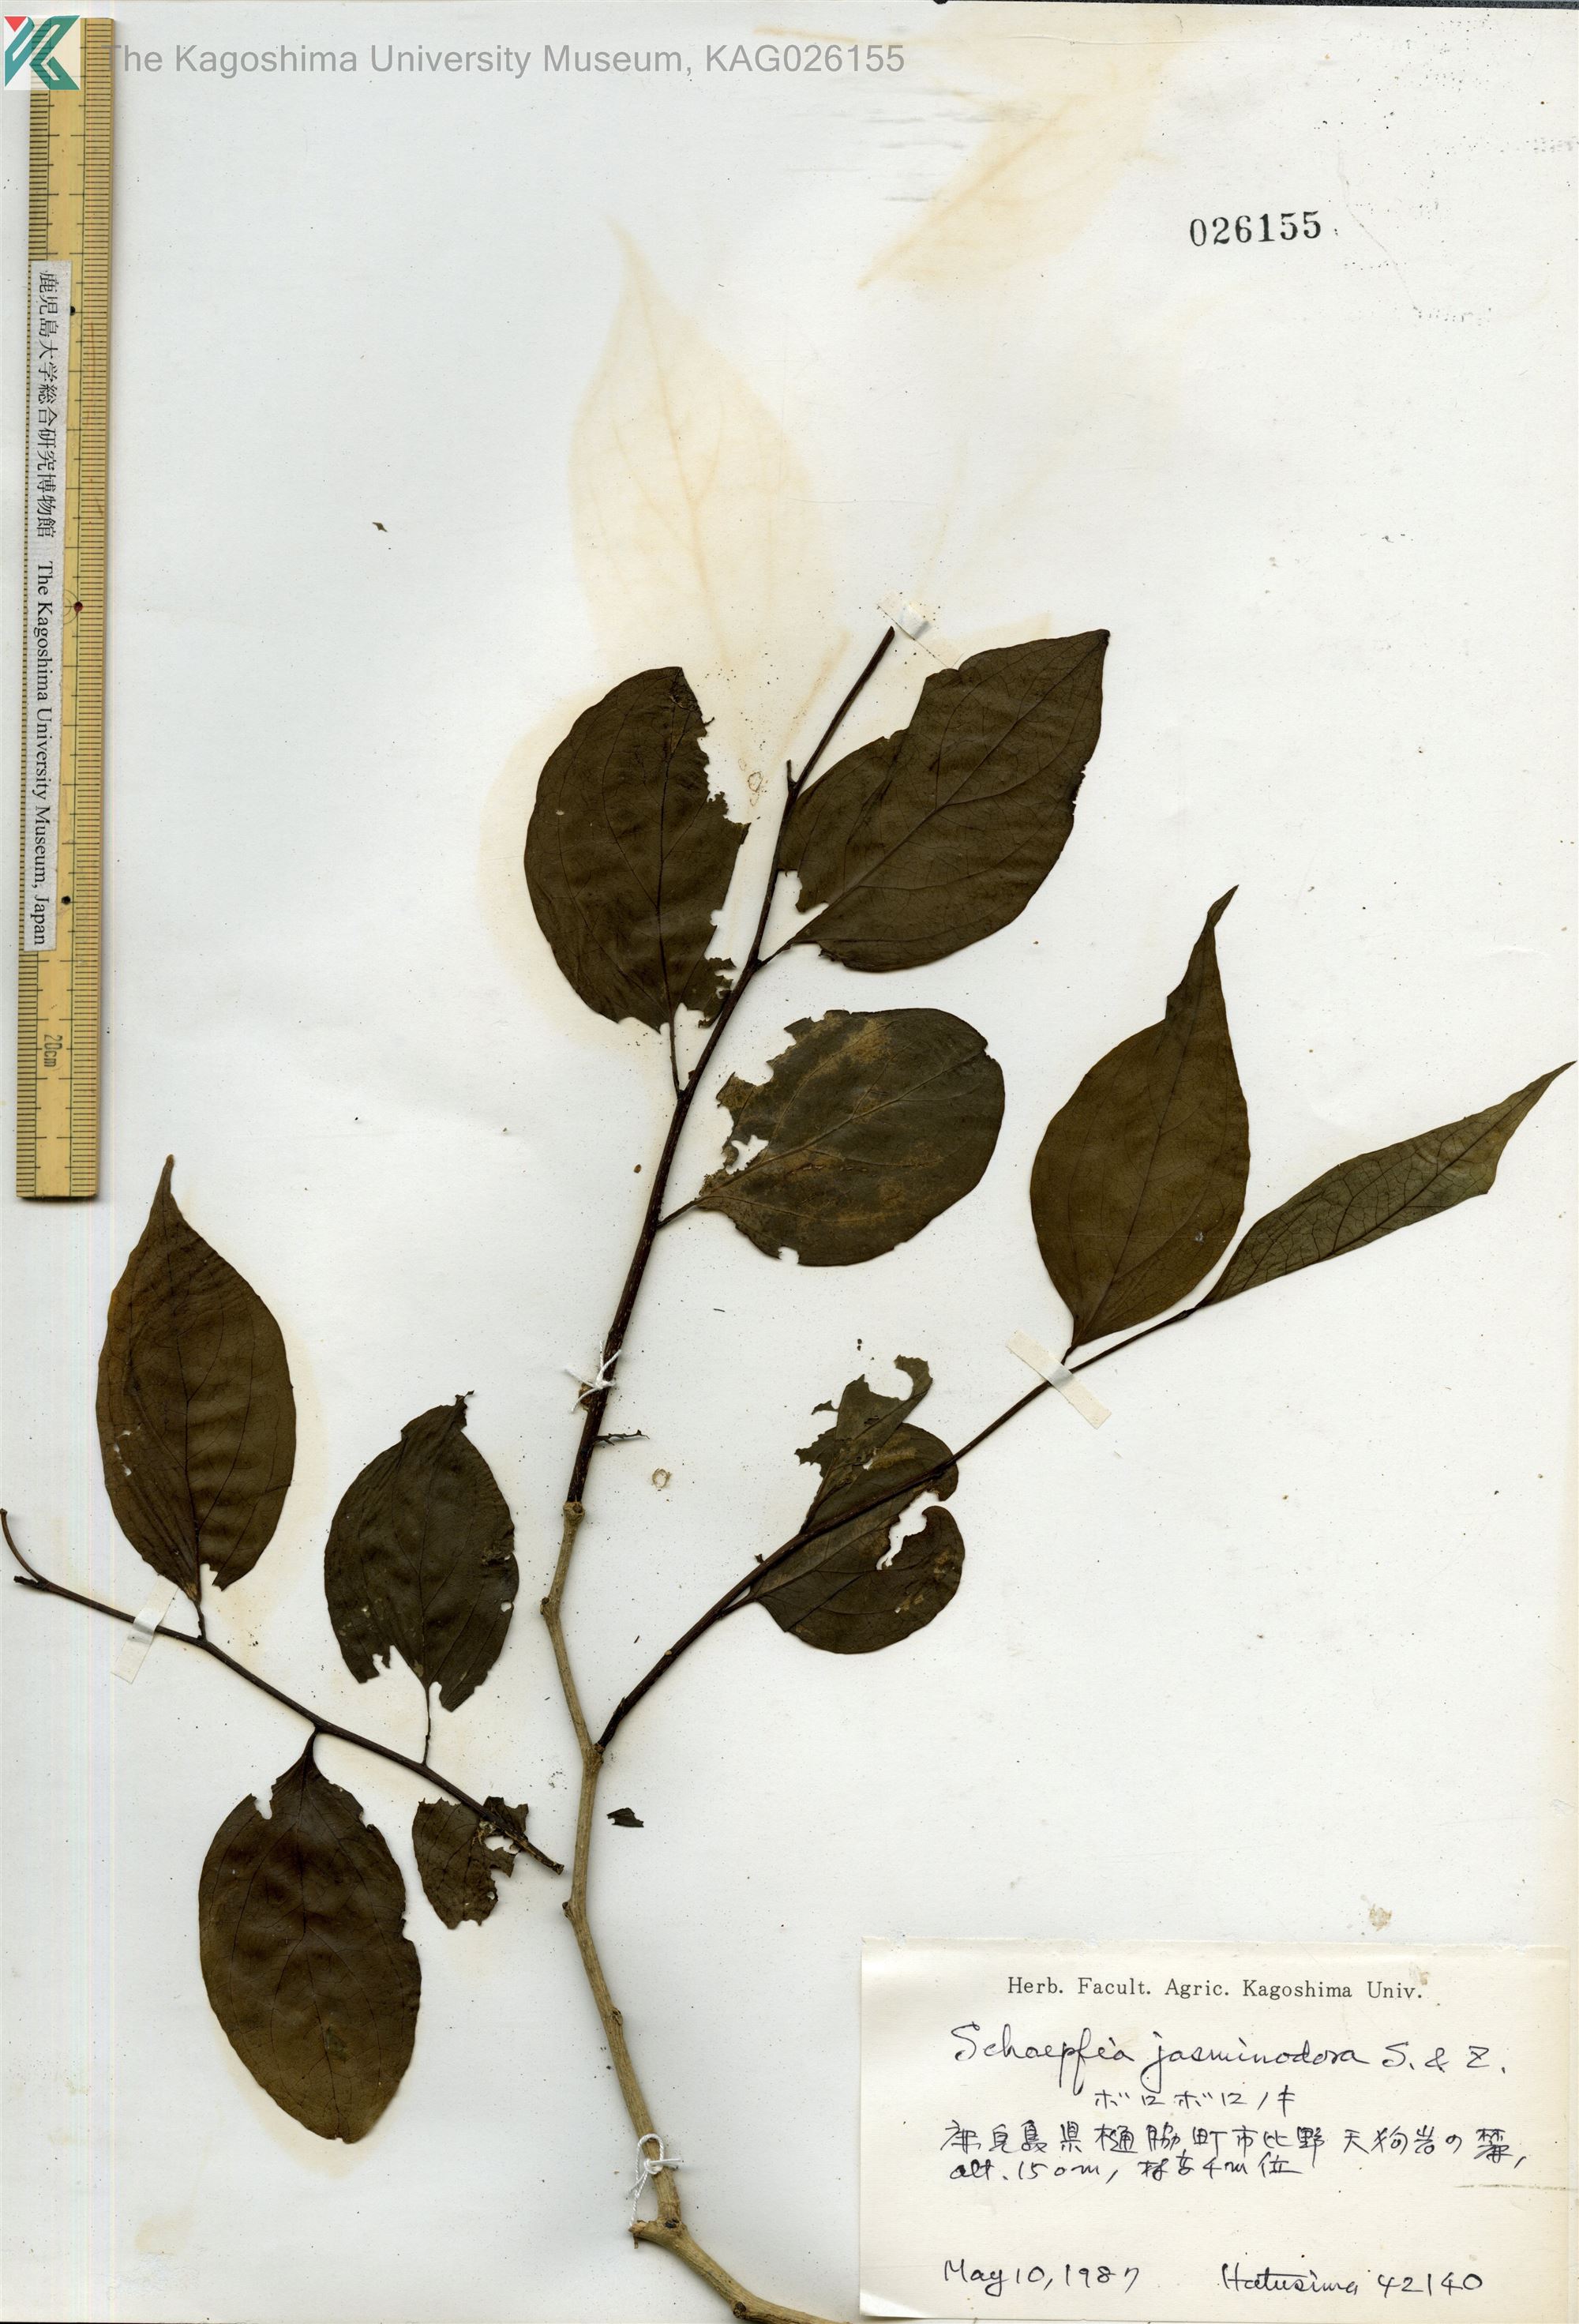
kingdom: Plantae
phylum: Tracheophyta
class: Magnoliopsida
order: Santalales
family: Schoepfiaceae
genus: Schoepfia
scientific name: Schoepfia jasminodora
